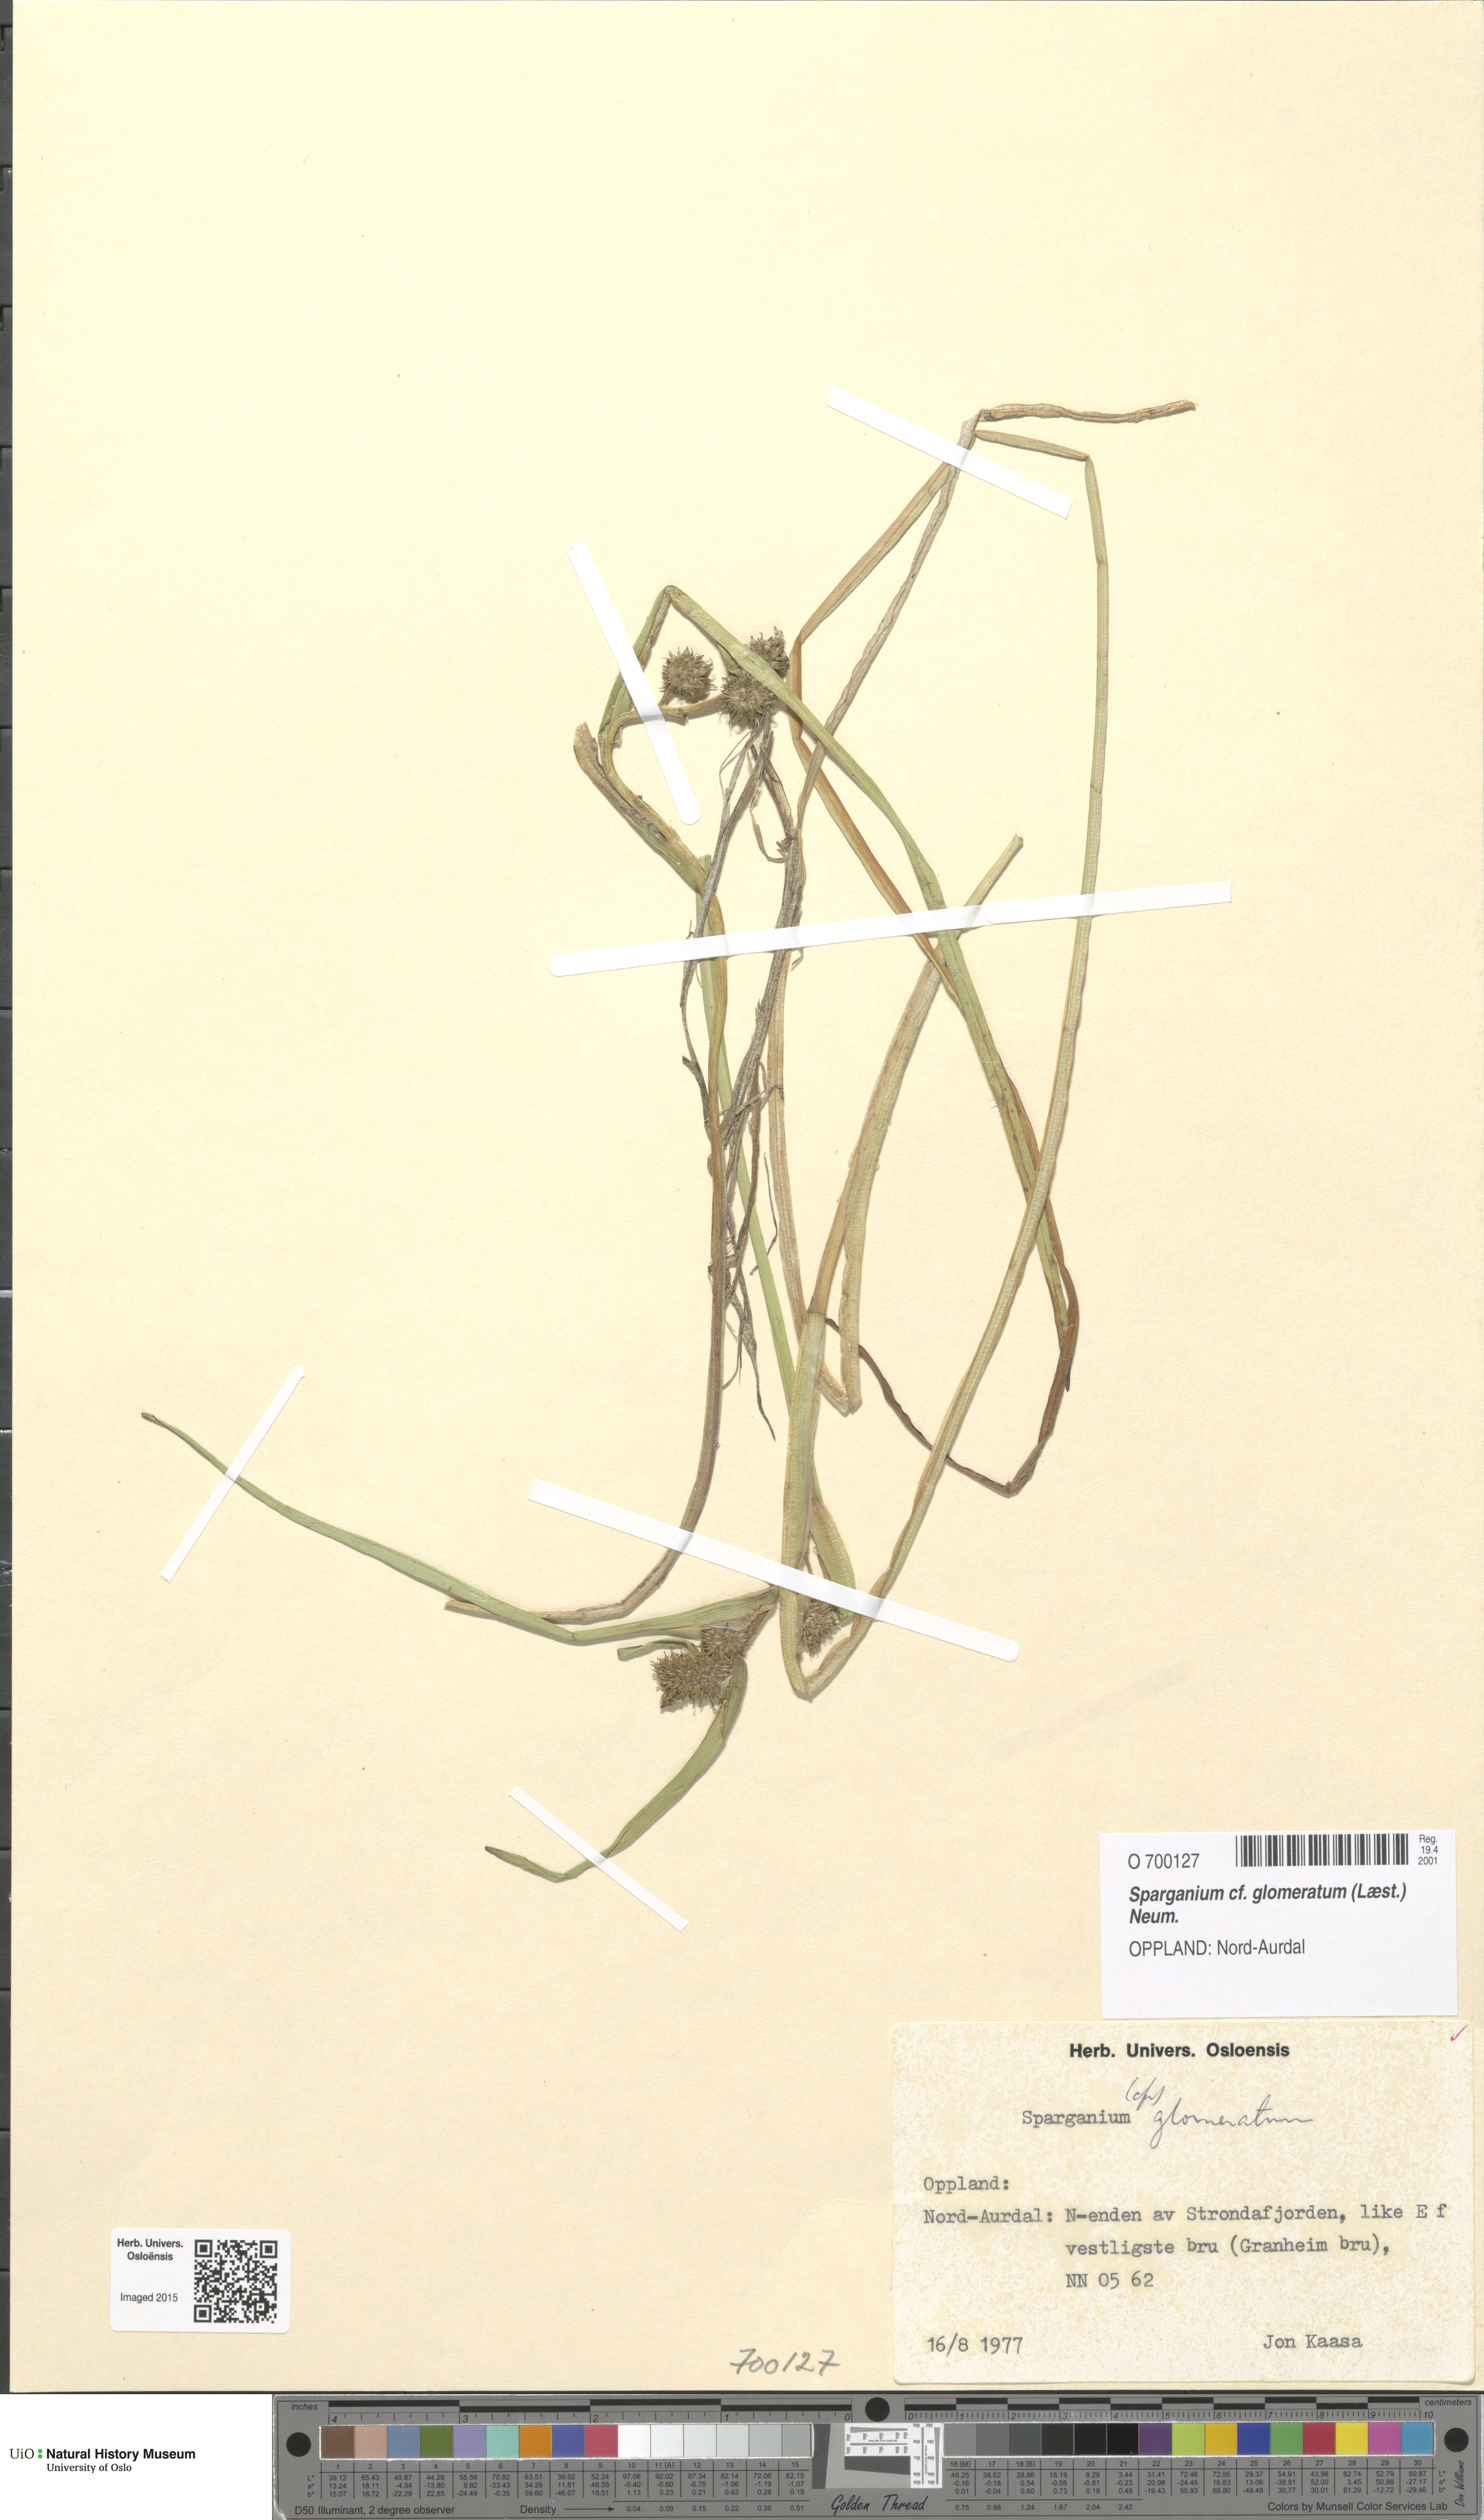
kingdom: Plantae
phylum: Tracheophyta
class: Liliopsida
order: Poales
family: Typhaceae
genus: Sparganium
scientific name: Sparganium glomeratum
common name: Clustered burreed
